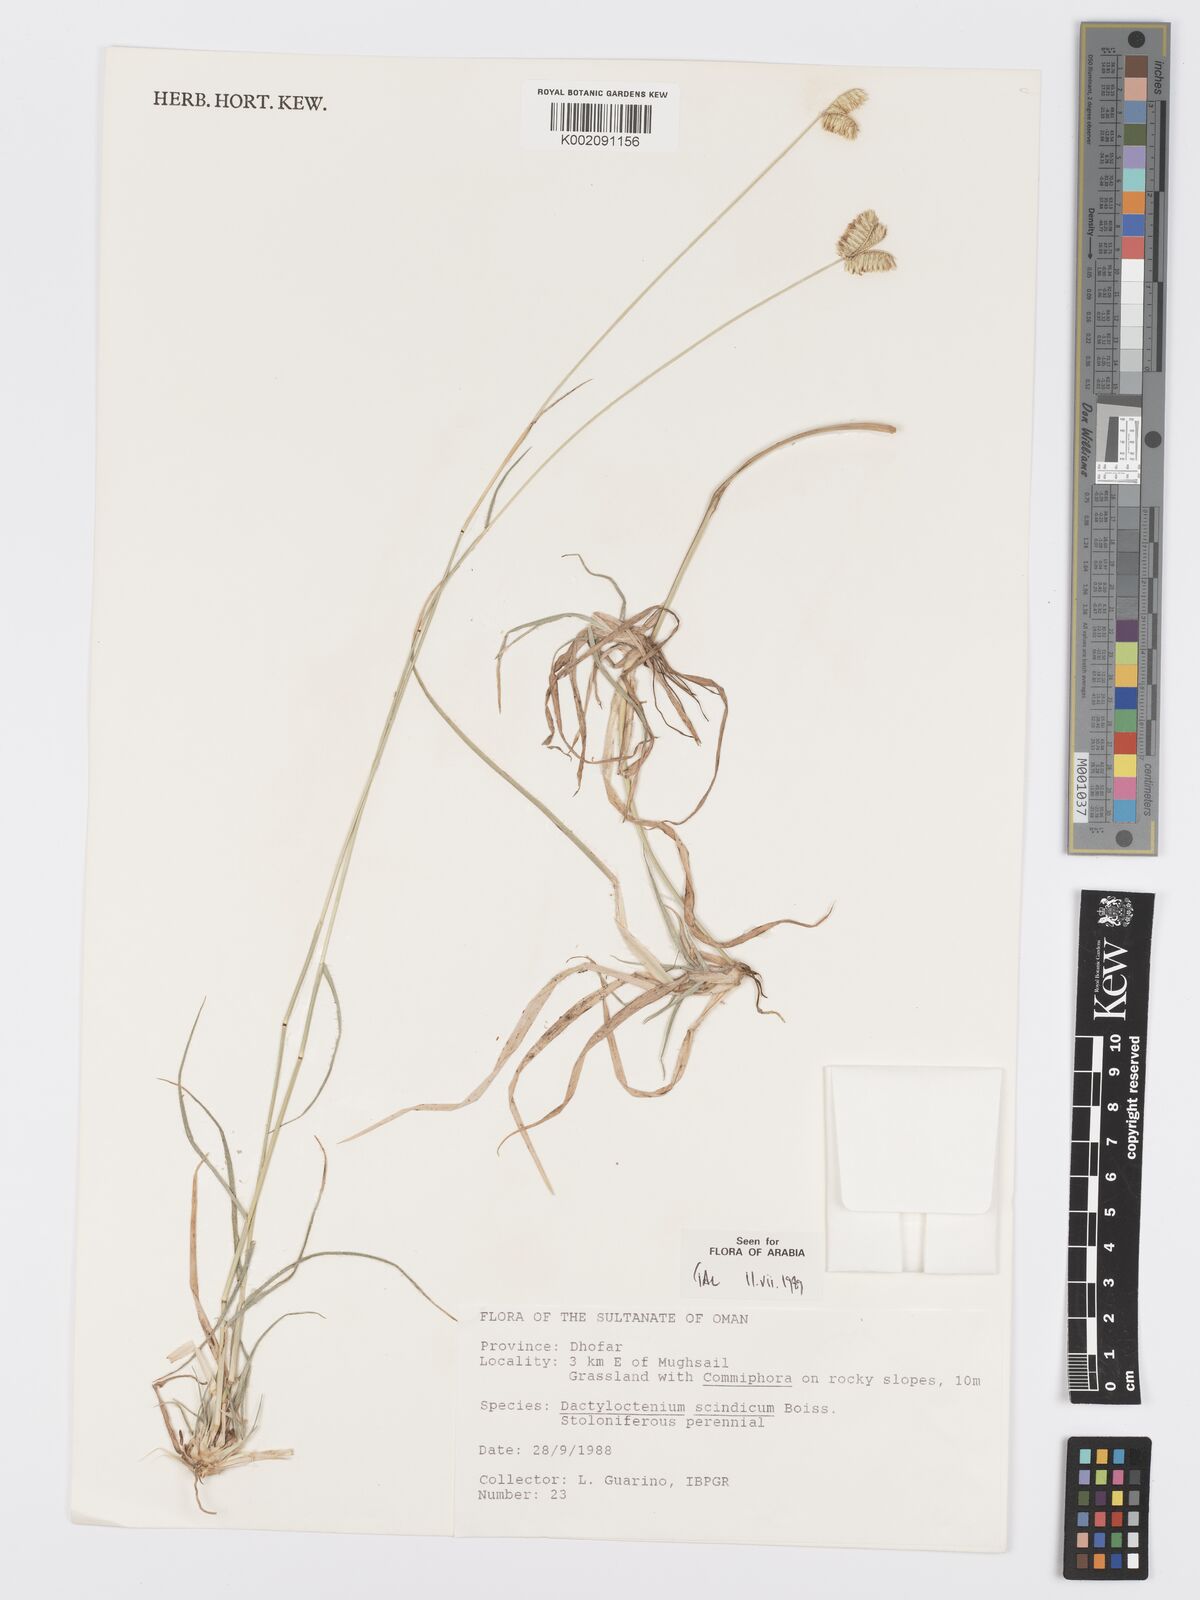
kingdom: Plantae
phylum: Tracheophyta
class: Liliopsida
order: Poales
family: Poaceae
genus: Dactyloctenium
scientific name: Dactyloctenium scindicum
